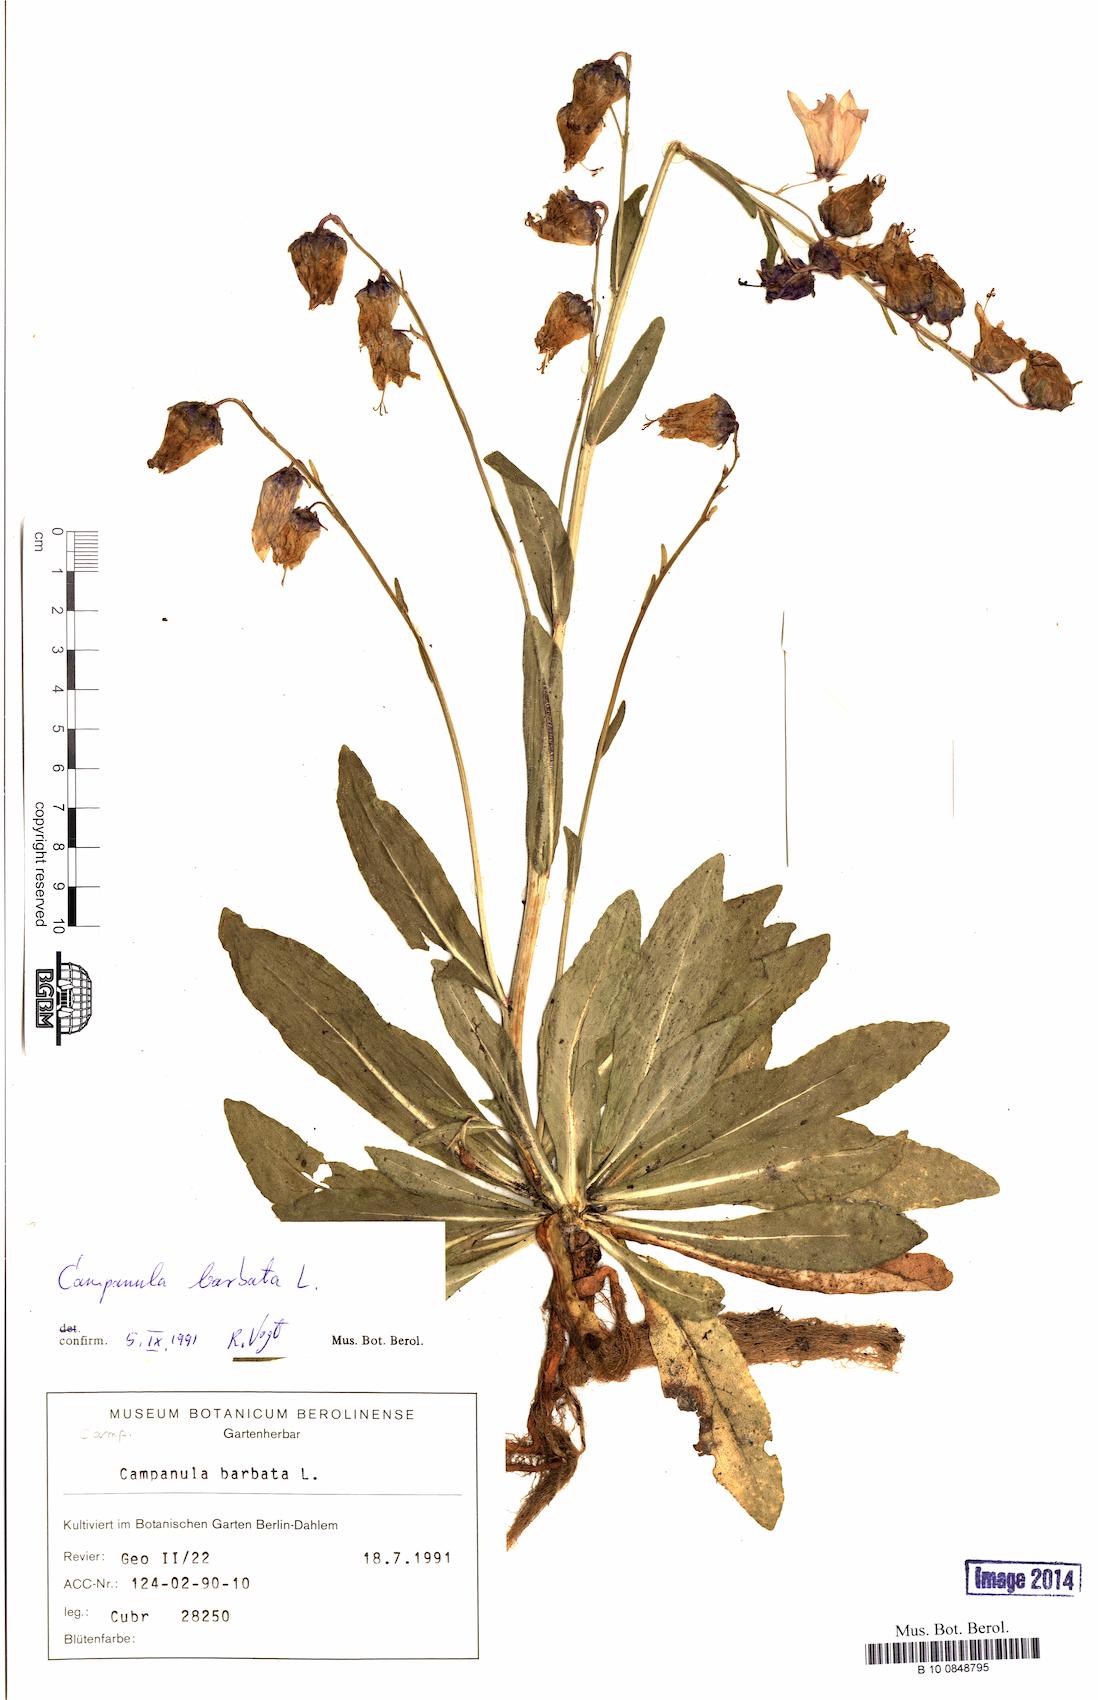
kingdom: Plantae
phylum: Tracheophyta
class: Magnoliopsida
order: Asterales
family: Campanulaceae
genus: Campanula
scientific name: Campanula barbata
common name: Bearded bellflower
